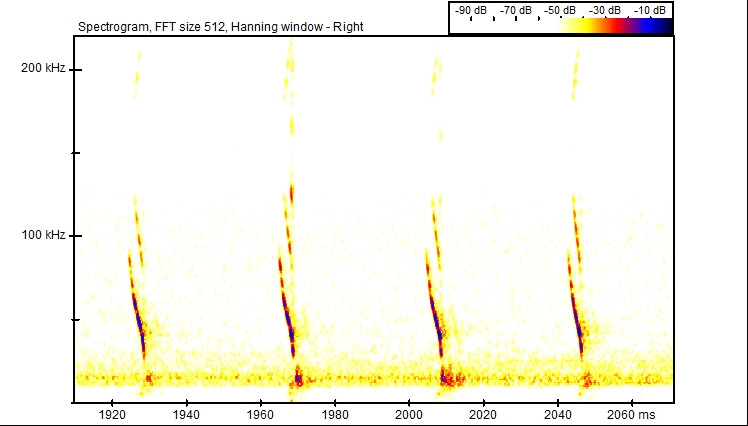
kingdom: Animalia
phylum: Chordata
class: Mammalia
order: Chiroptera
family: Vespertilionidae
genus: Myotis
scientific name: Myotis daubentonii
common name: Vandflagermus
